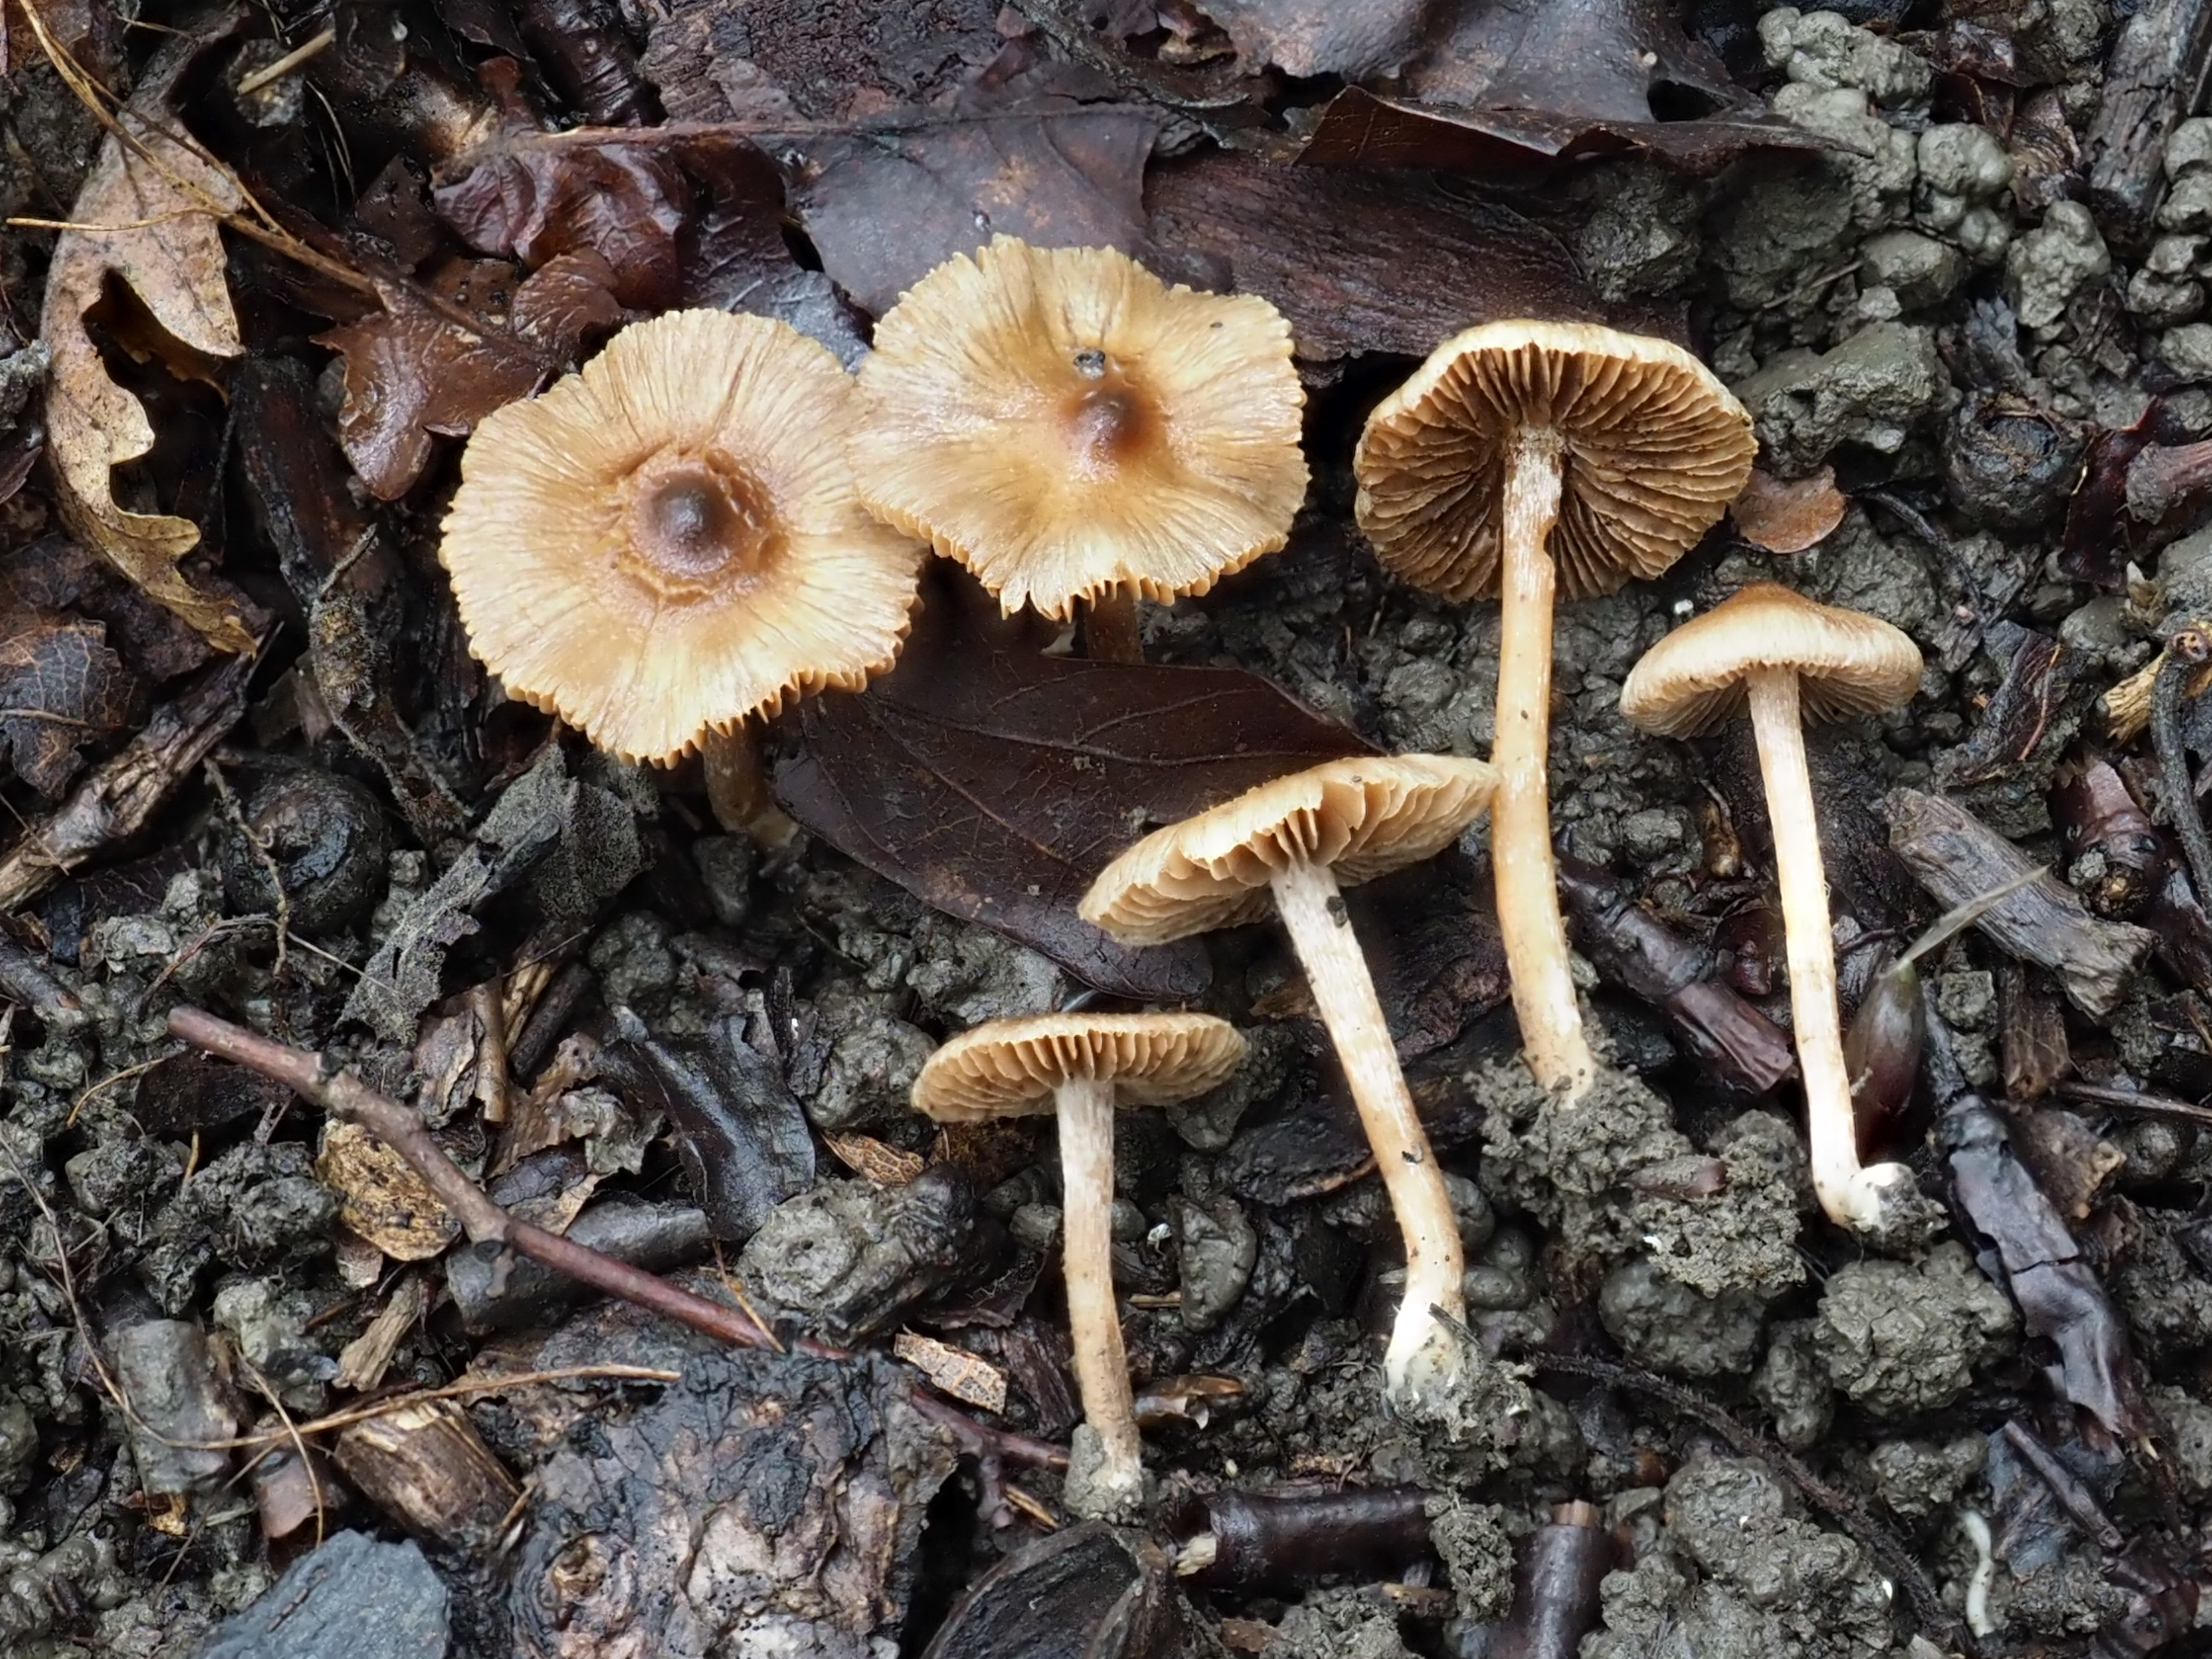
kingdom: Fungi
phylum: Basidiomycota
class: Agaricomycetes
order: Agaricales
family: Inocybaceae
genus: Inocybe
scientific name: Inocybe minimispora
